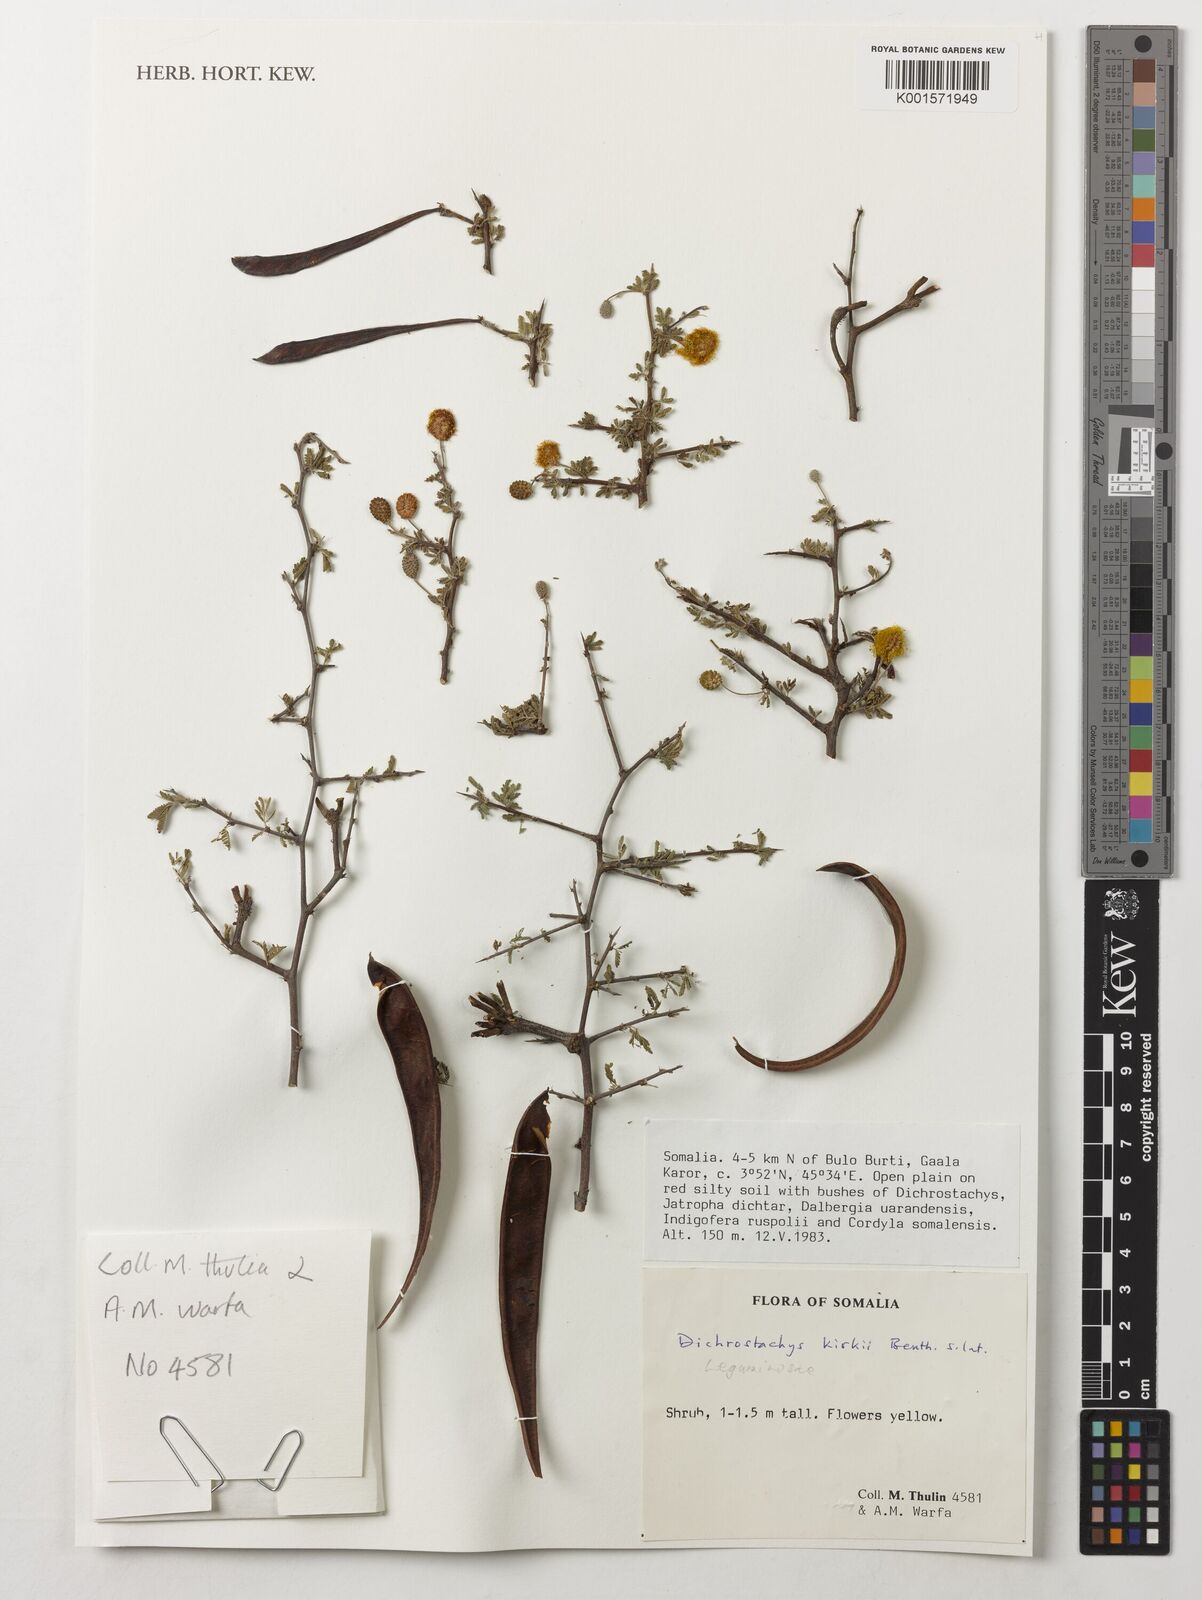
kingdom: Plantae
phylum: Tracheophyta
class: Magnoliopsida
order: Fabales
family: Fabaceae
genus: Dichrostachys
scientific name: Dichrostachys kirkii
